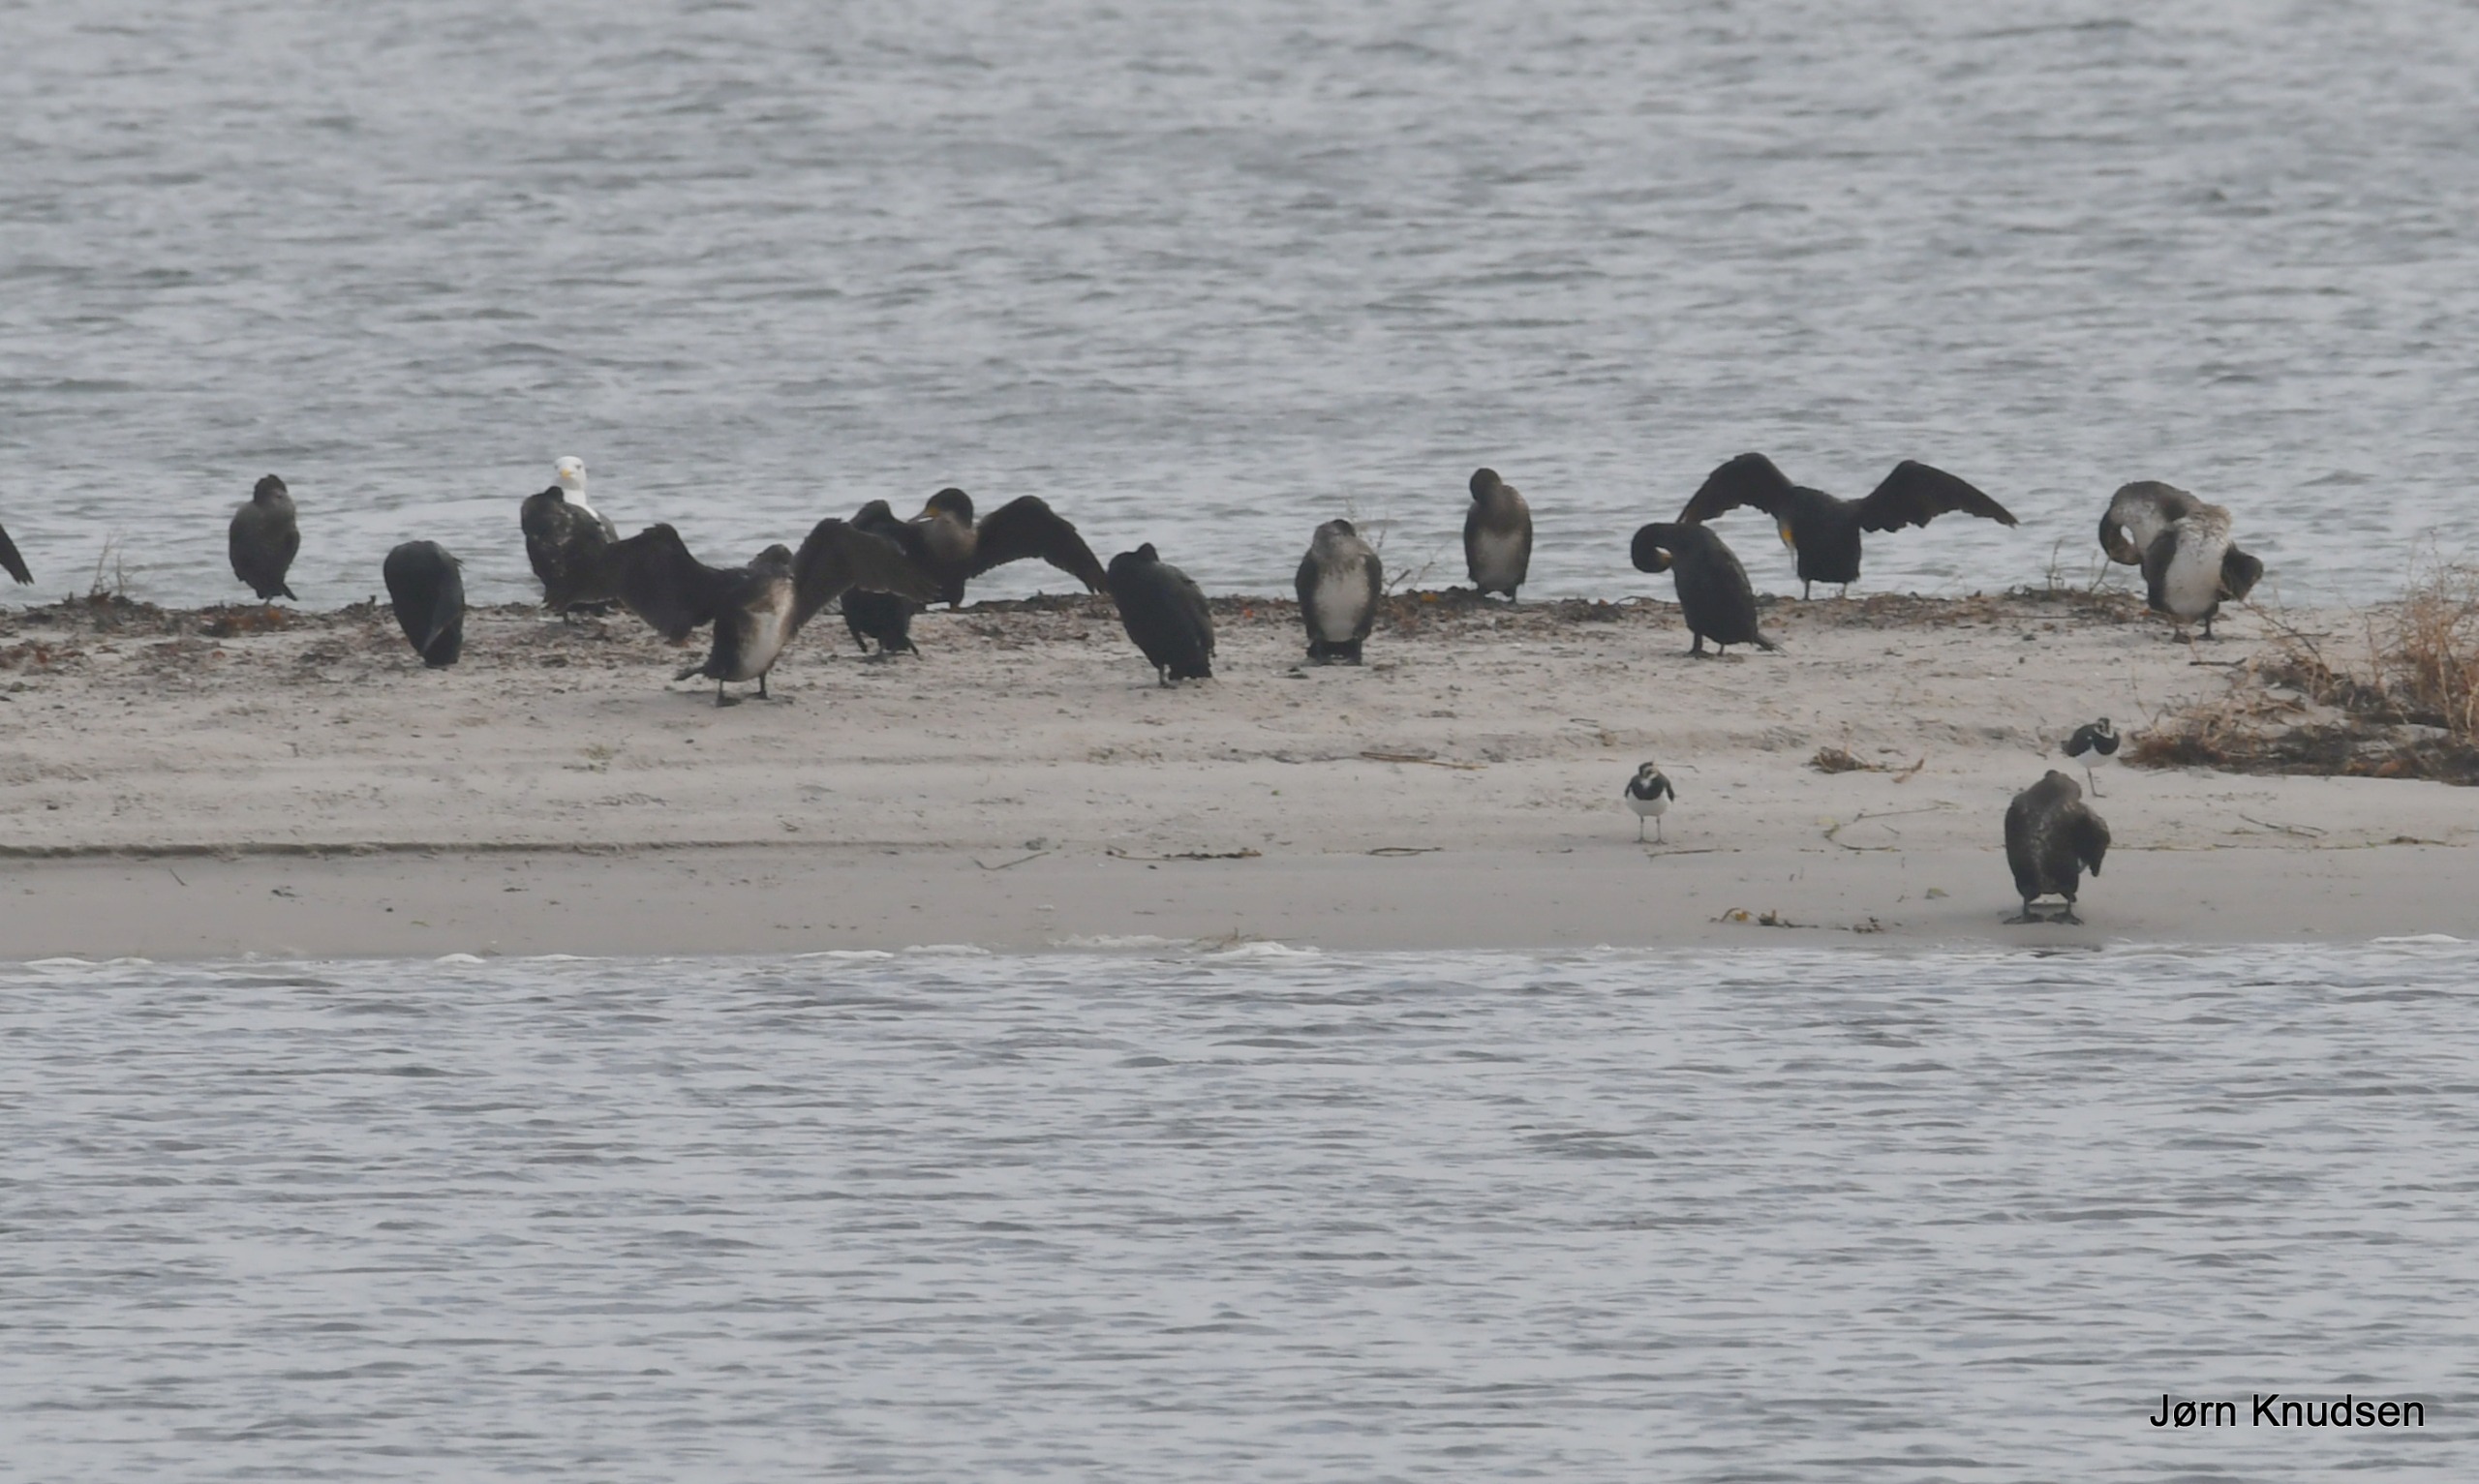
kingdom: Animalia
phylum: Chordata
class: Aves
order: Suliformes
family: Phalacrocoracidae
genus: Phalacrocorax
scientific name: Phalacrocorax carbo
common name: Skarv
